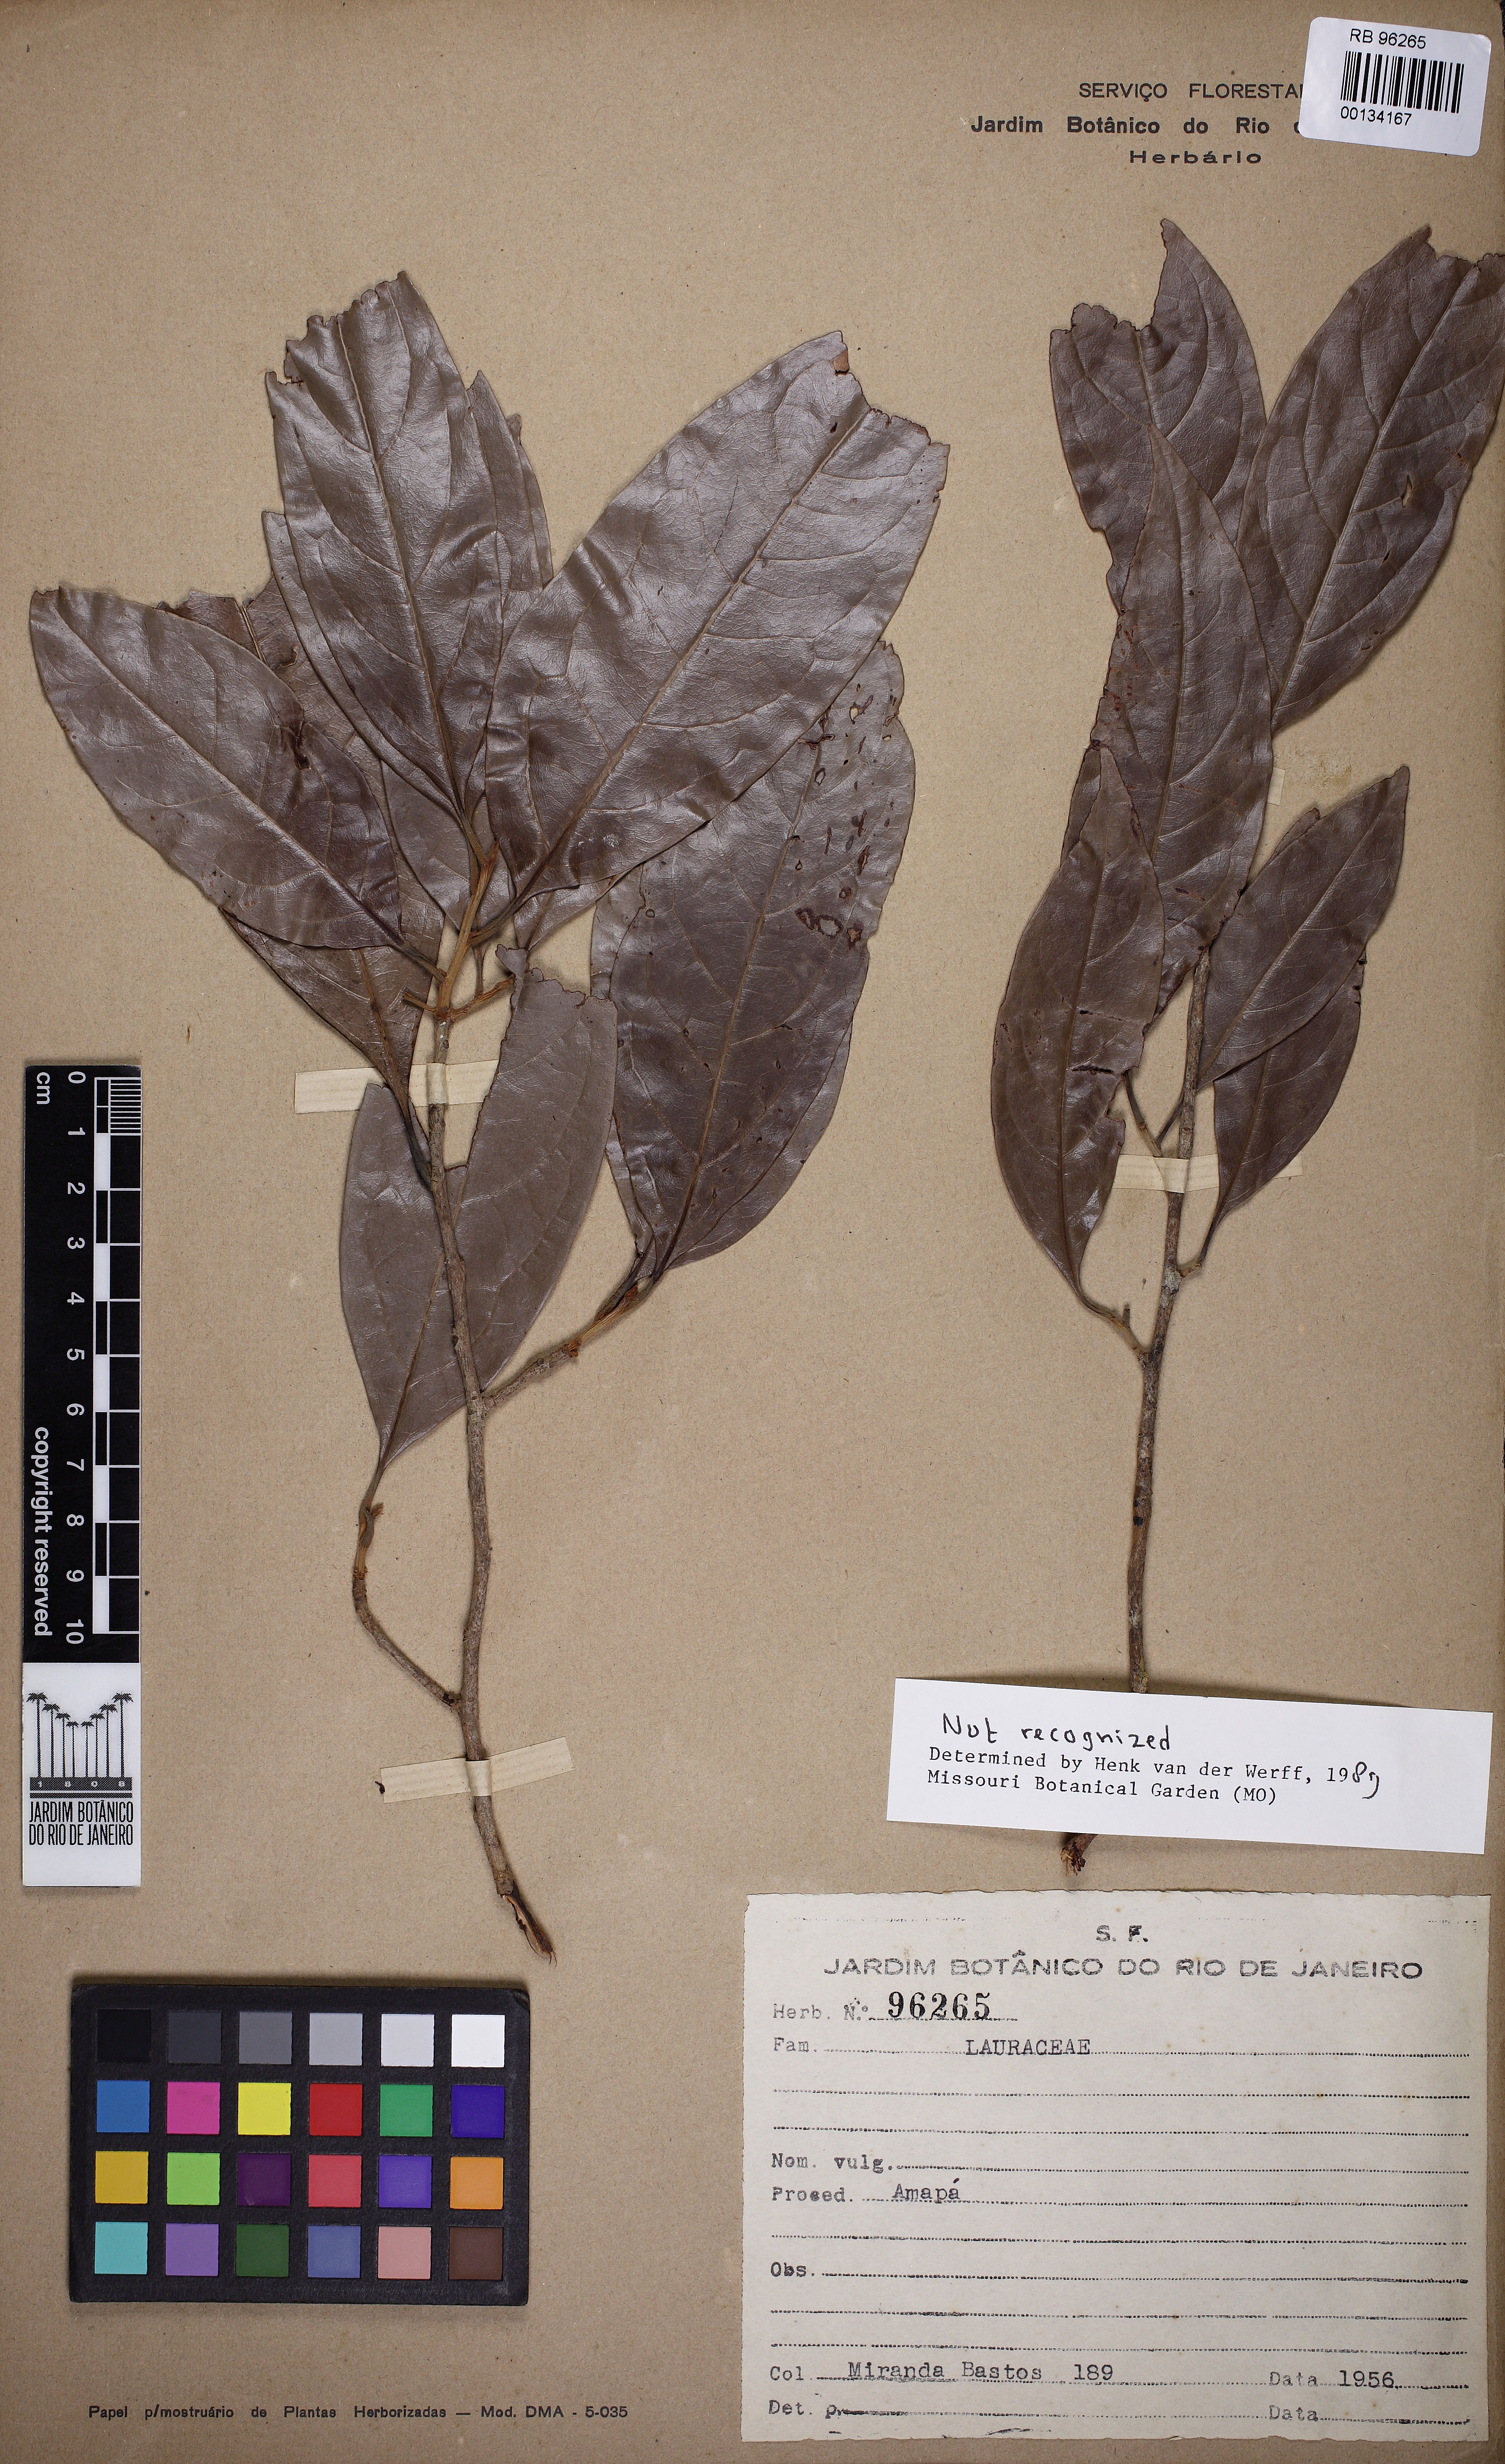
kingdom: Plantae
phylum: Tracheophyta
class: Magnoliopsida
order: Laurales
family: Lauraceae
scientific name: Lauraceae
